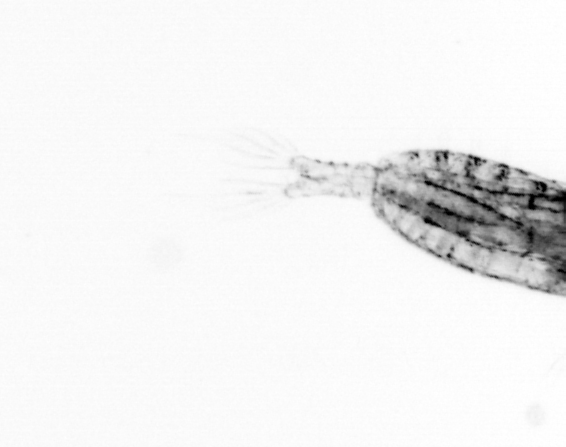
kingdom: Animalia
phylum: Arthropoda
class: Copepoda
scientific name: Copepoda
